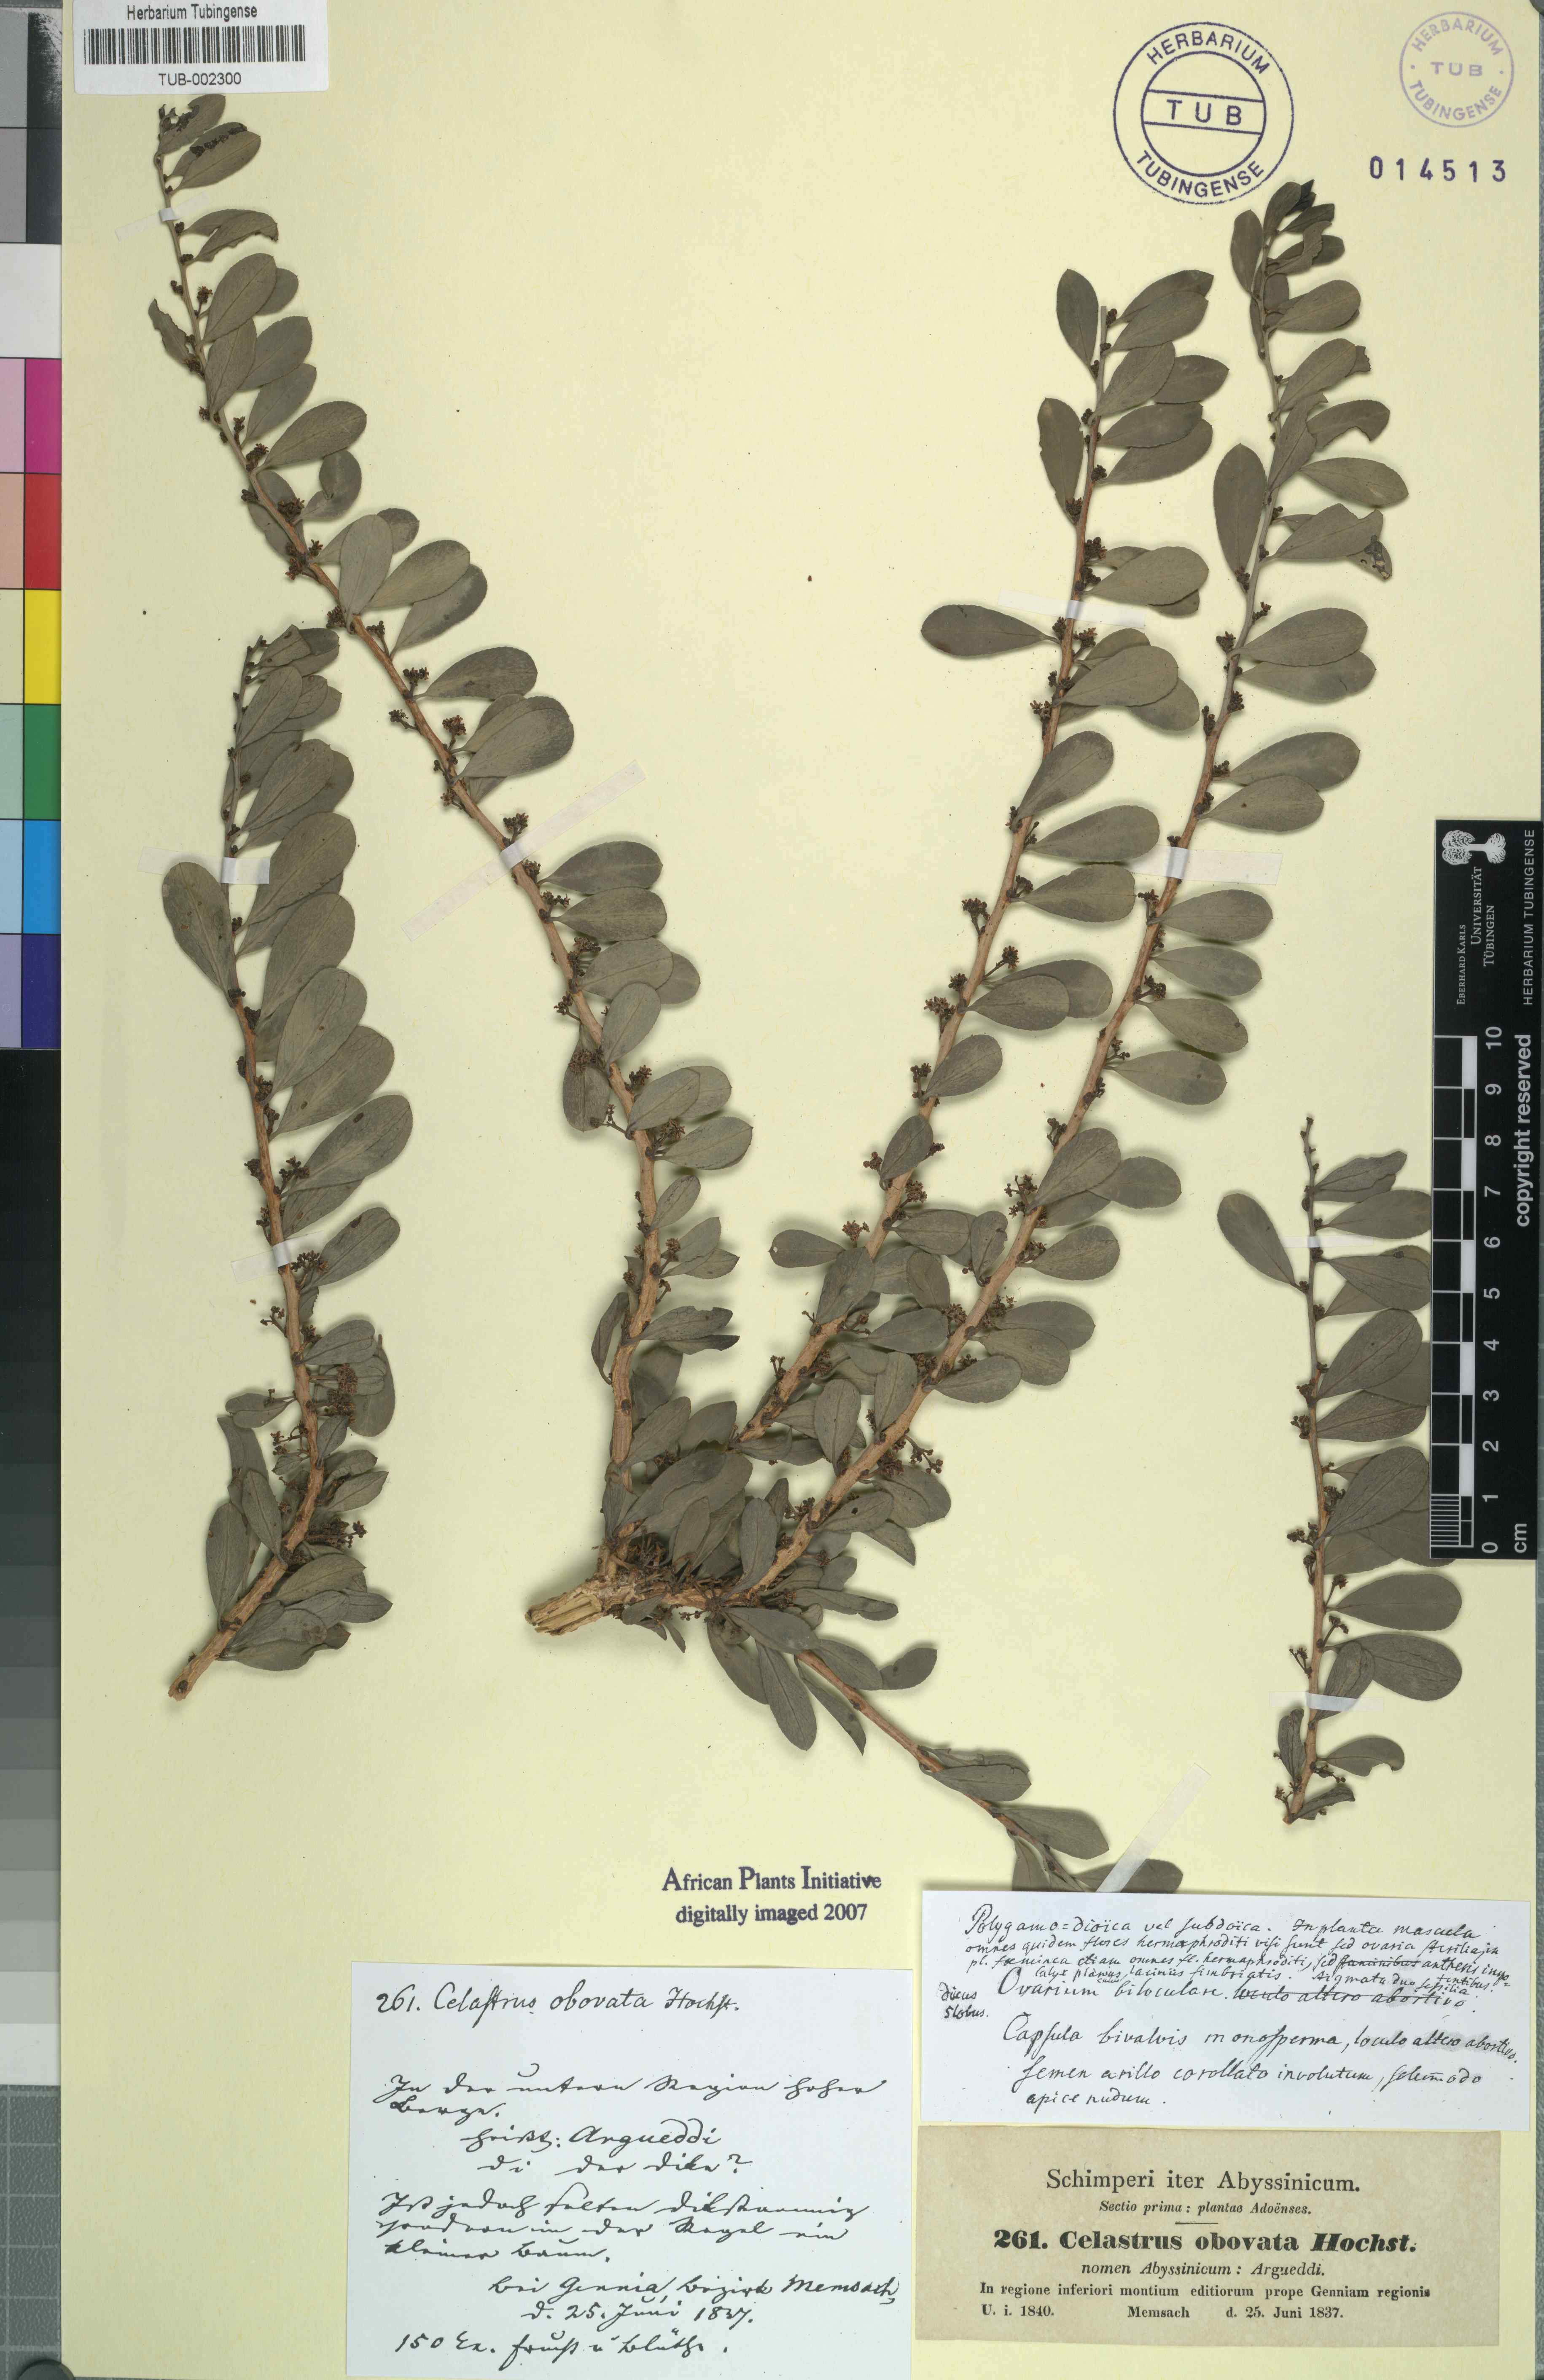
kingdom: Plantae
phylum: Tracheophyta
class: Magnoliopsida
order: Celastrales
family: Celastraceae
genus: Gymnosporia
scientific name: Gymnosporia senegalensis
